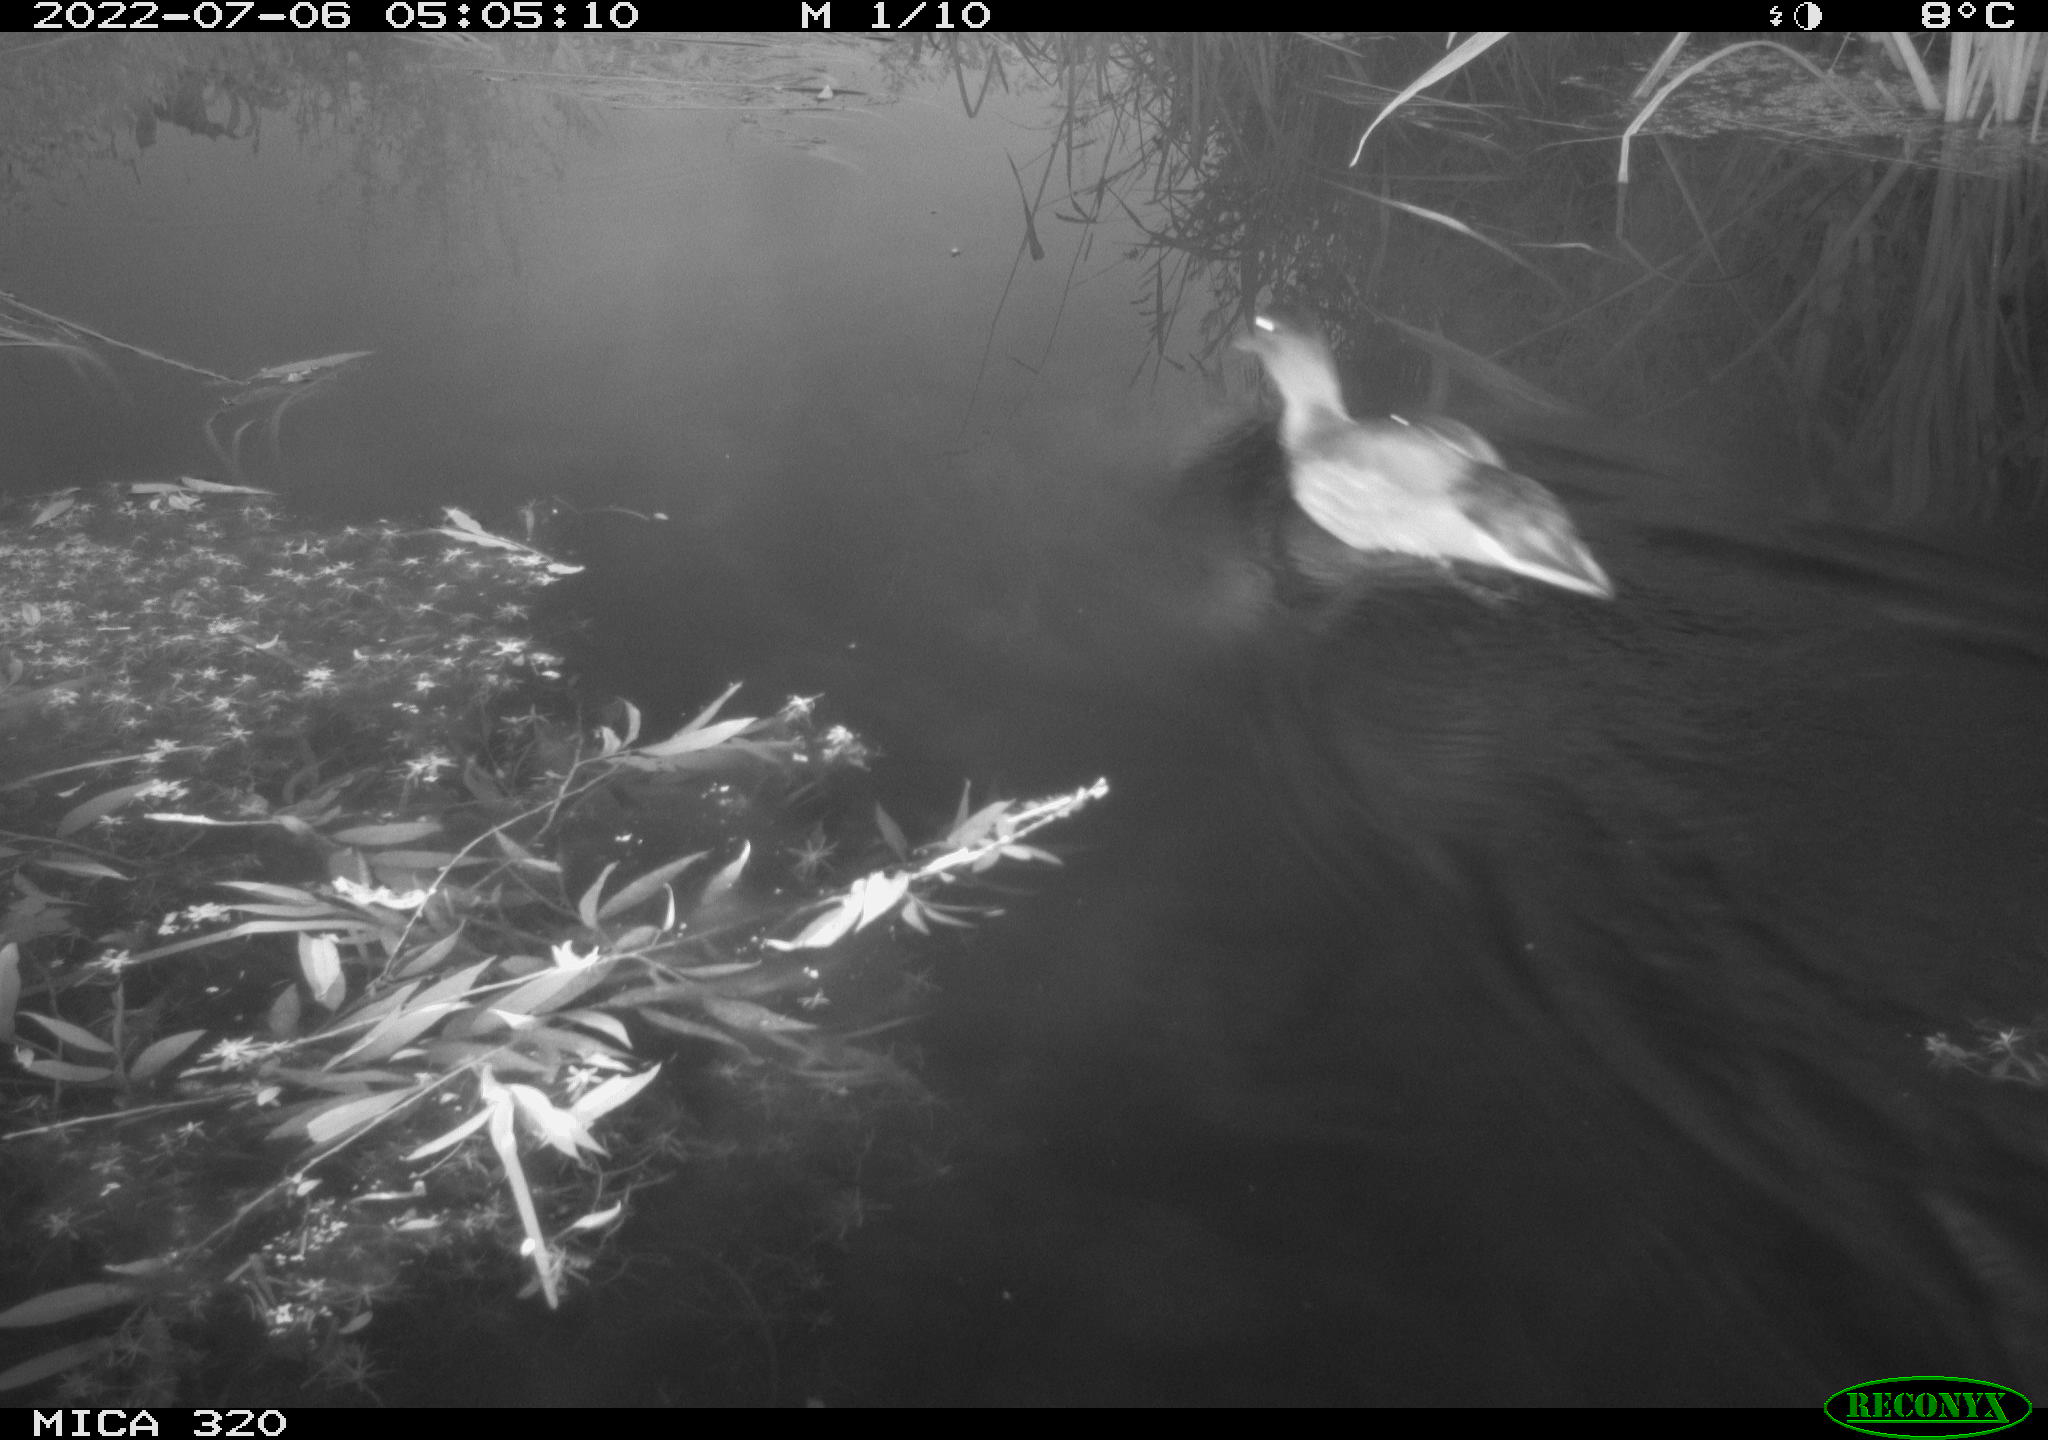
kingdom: Animalia
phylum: Chordata
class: Aves
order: Anseriformes
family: Anatidae
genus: Mareca
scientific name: Mareca strepera
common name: Gadwall
